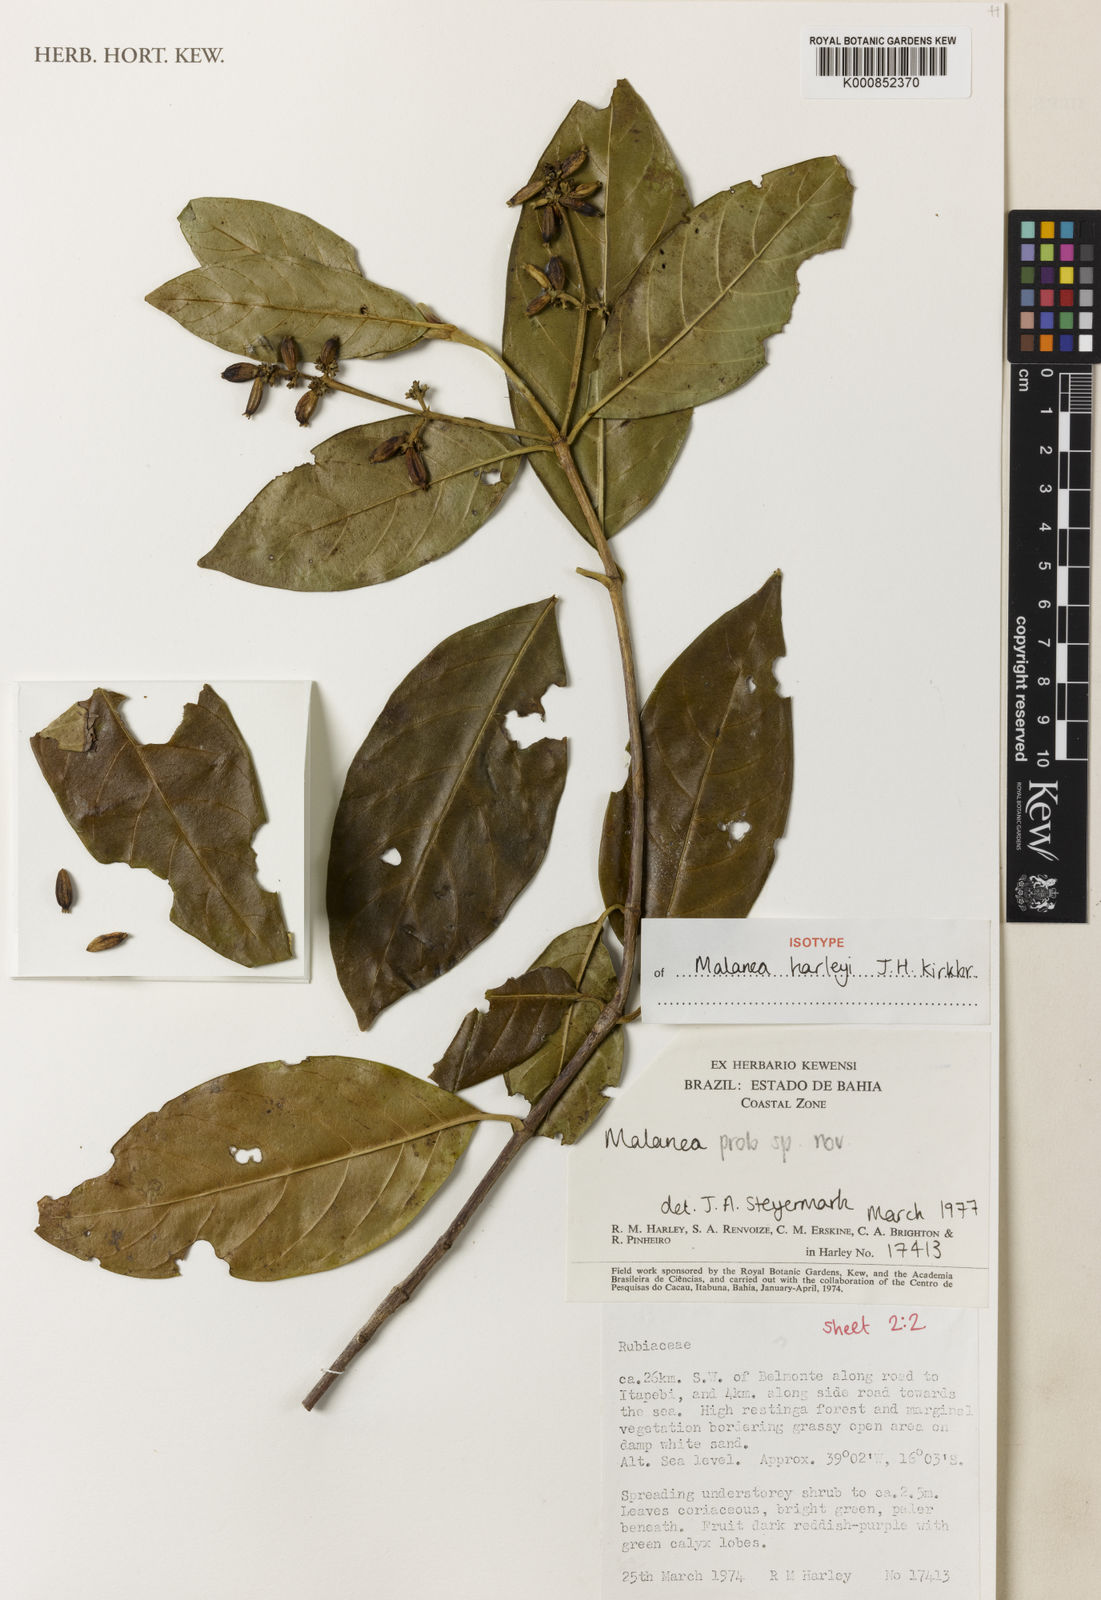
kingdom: Plantae
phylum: Tracheophyta
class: Magnoliopsida
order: Gentianales
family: Rubiaceae
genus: Malanea
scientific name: Malanea harleyi
